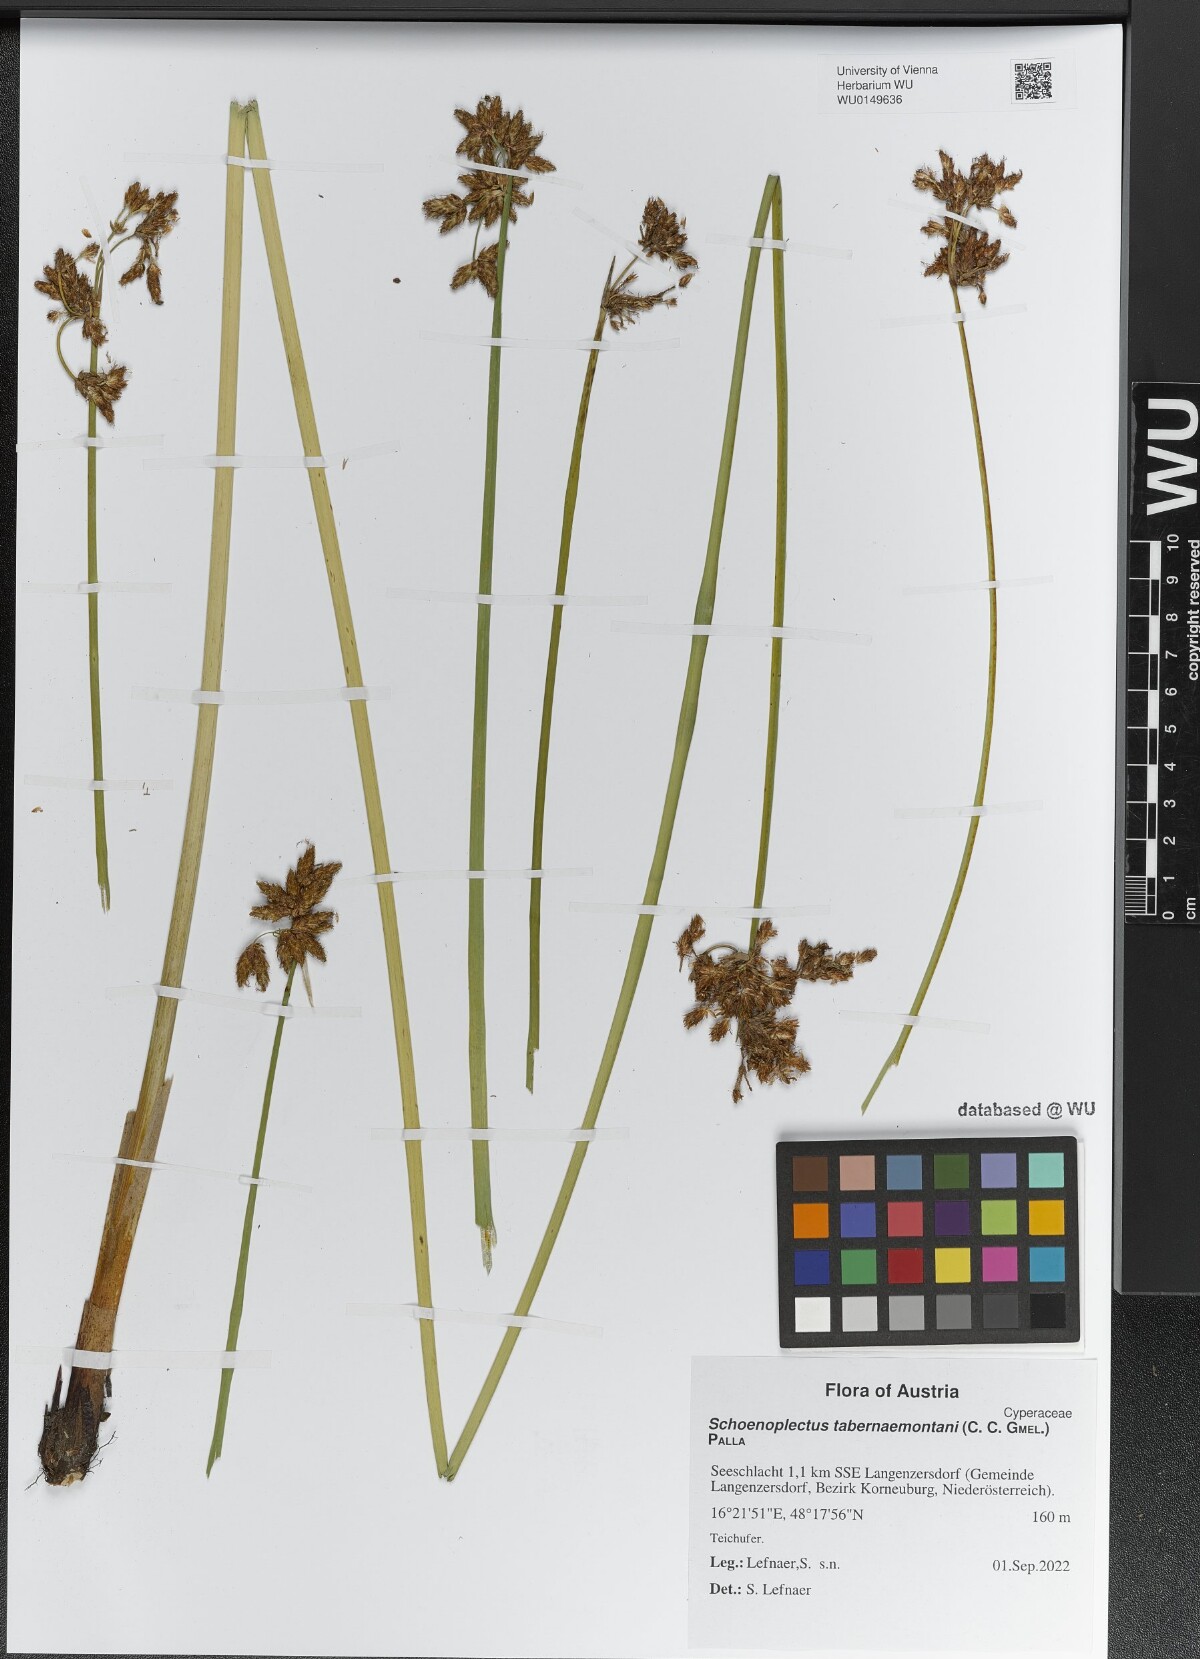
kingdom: Plantae
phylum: Tracheophyta
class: Liliopsida
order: Poales
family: Cyperaceae
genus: Schoenoplectus
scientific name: Schoenoplectus tabernaemontani
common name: Grey club-rush
